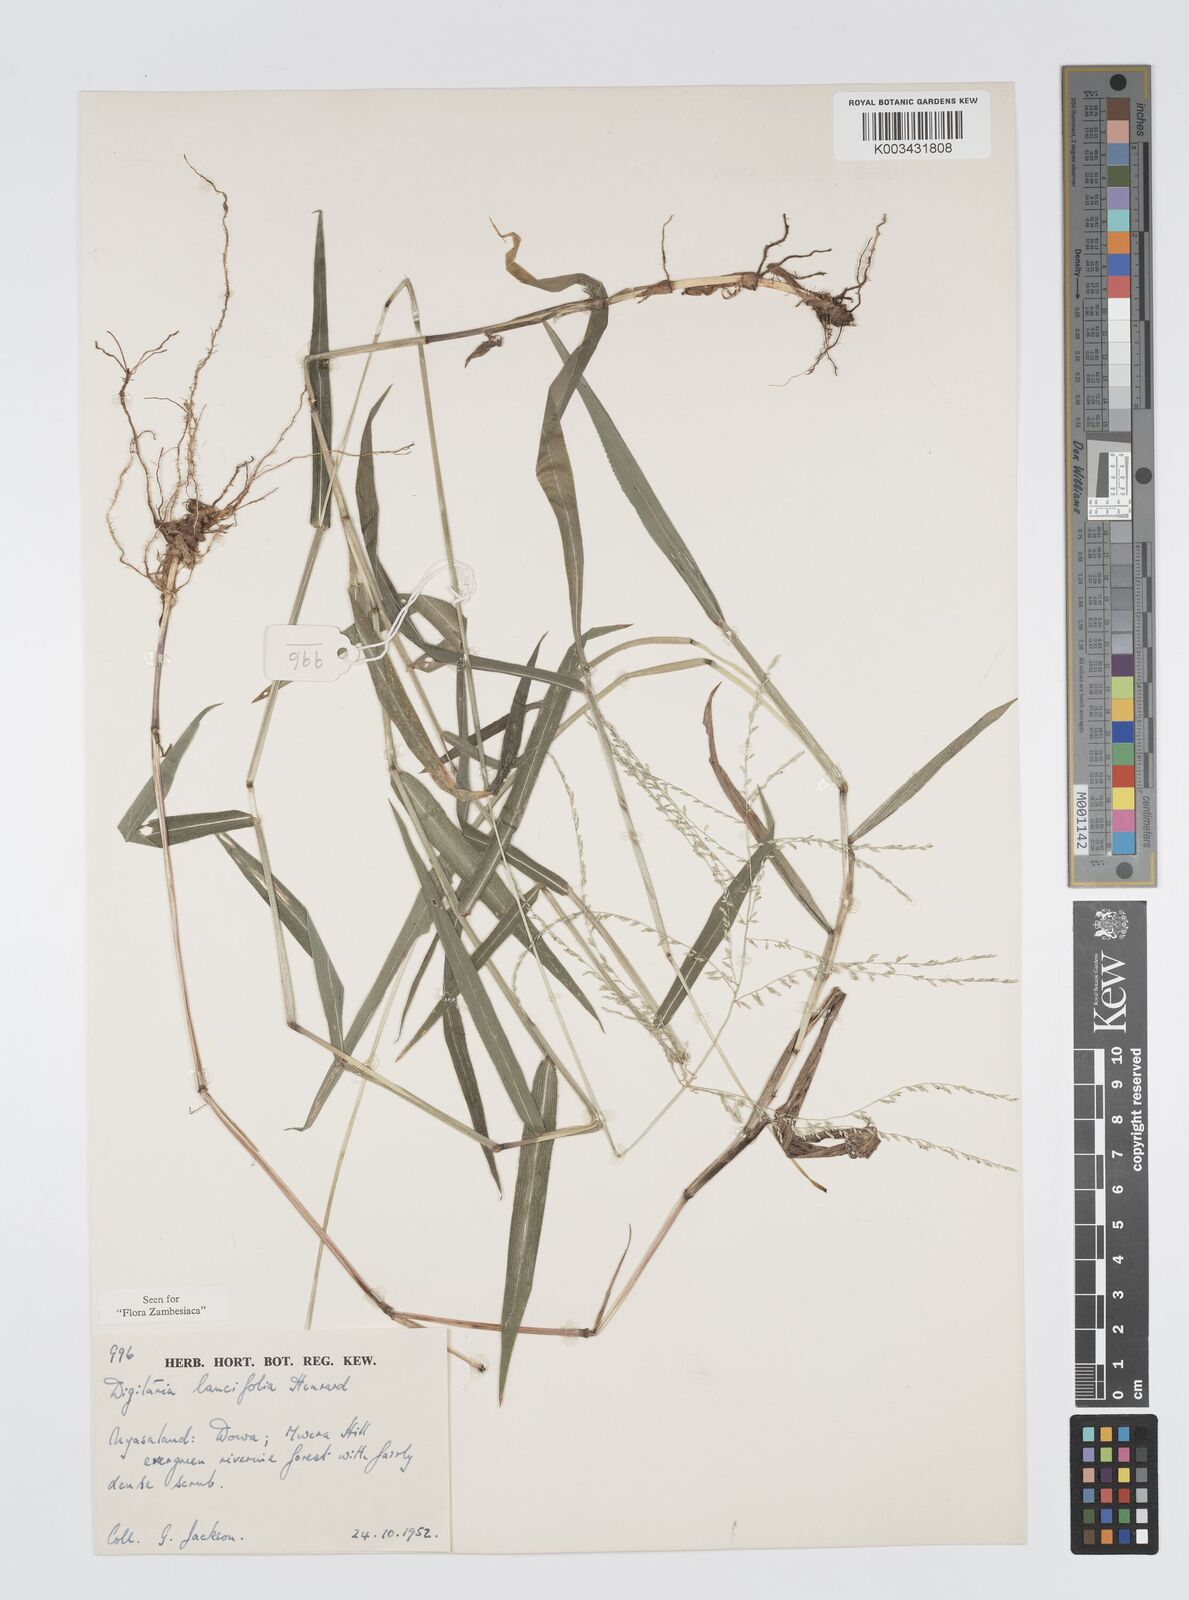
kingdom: Plantae
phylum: Tracheophyta
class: Liliopsida
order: Poales
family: Poaceae
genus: Digitaria
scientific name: Digitaria pearsonii
